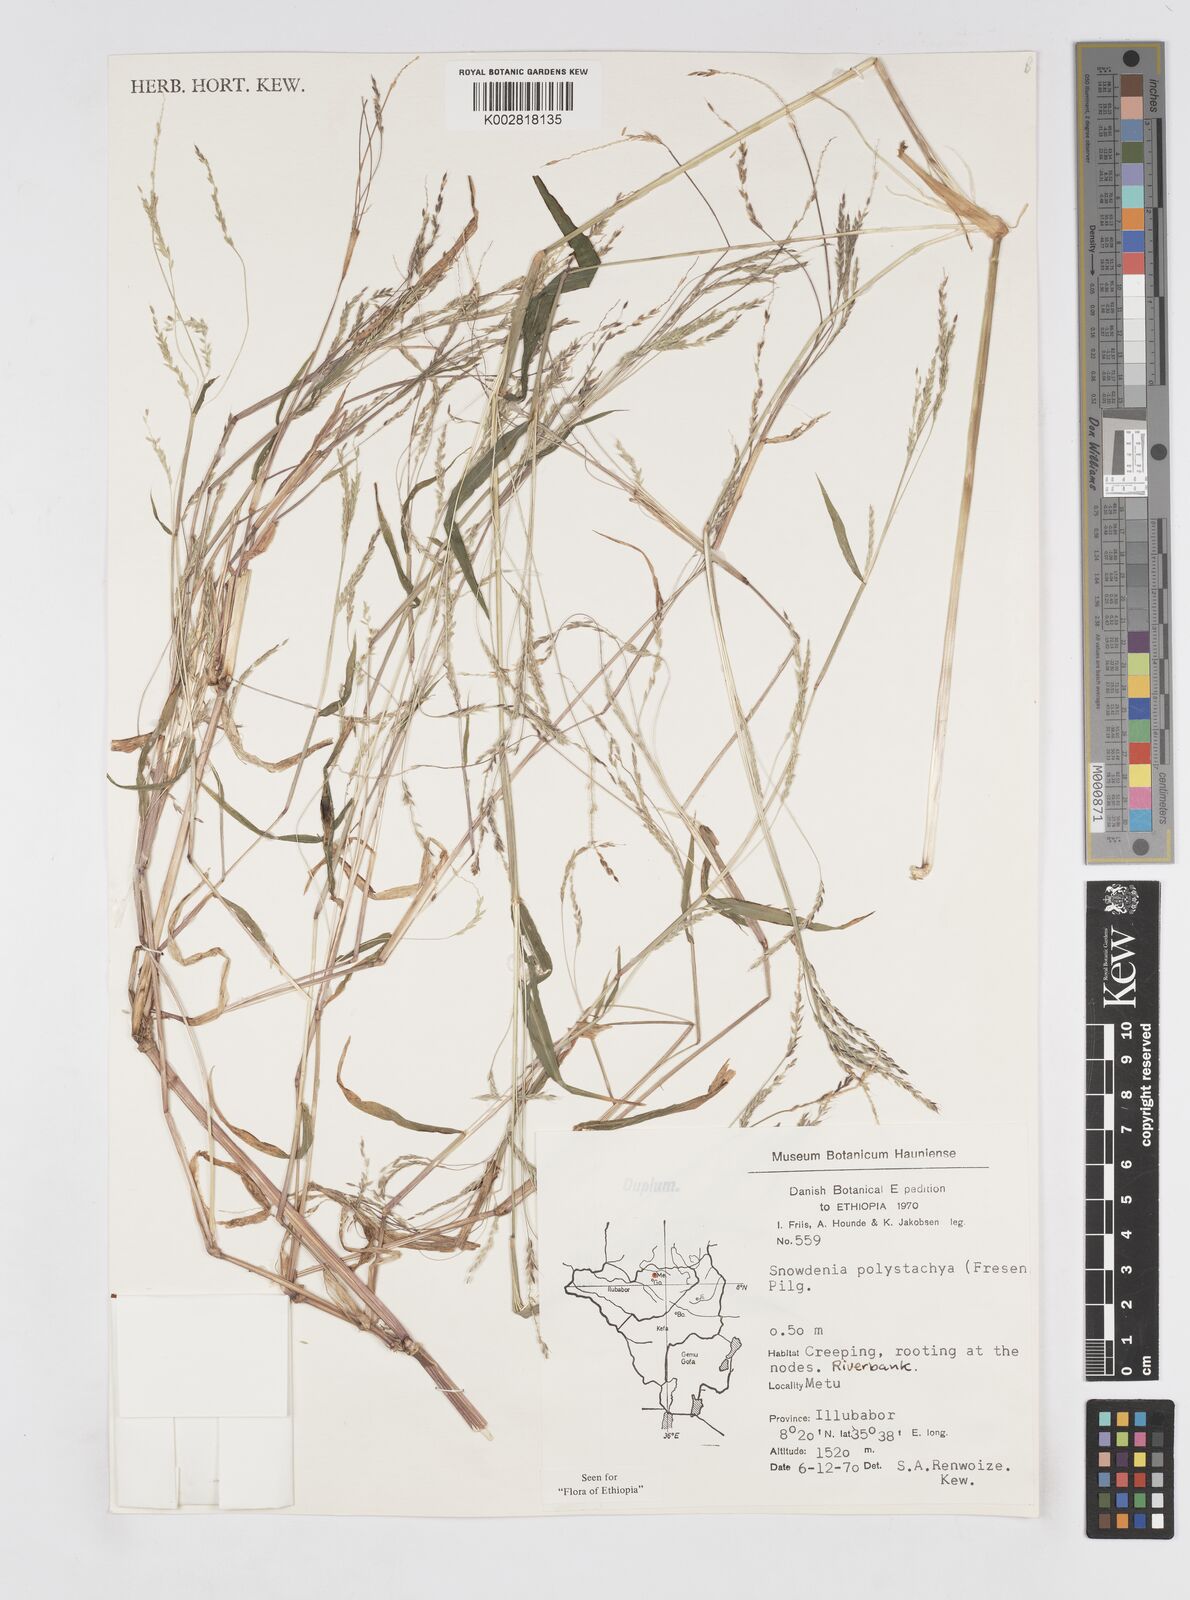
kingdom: Plantae
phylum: Tracheophyta
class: Liliopsida
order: Poales
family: Poaceae
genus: Snowdenia
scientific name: Snowdenia polystachya
